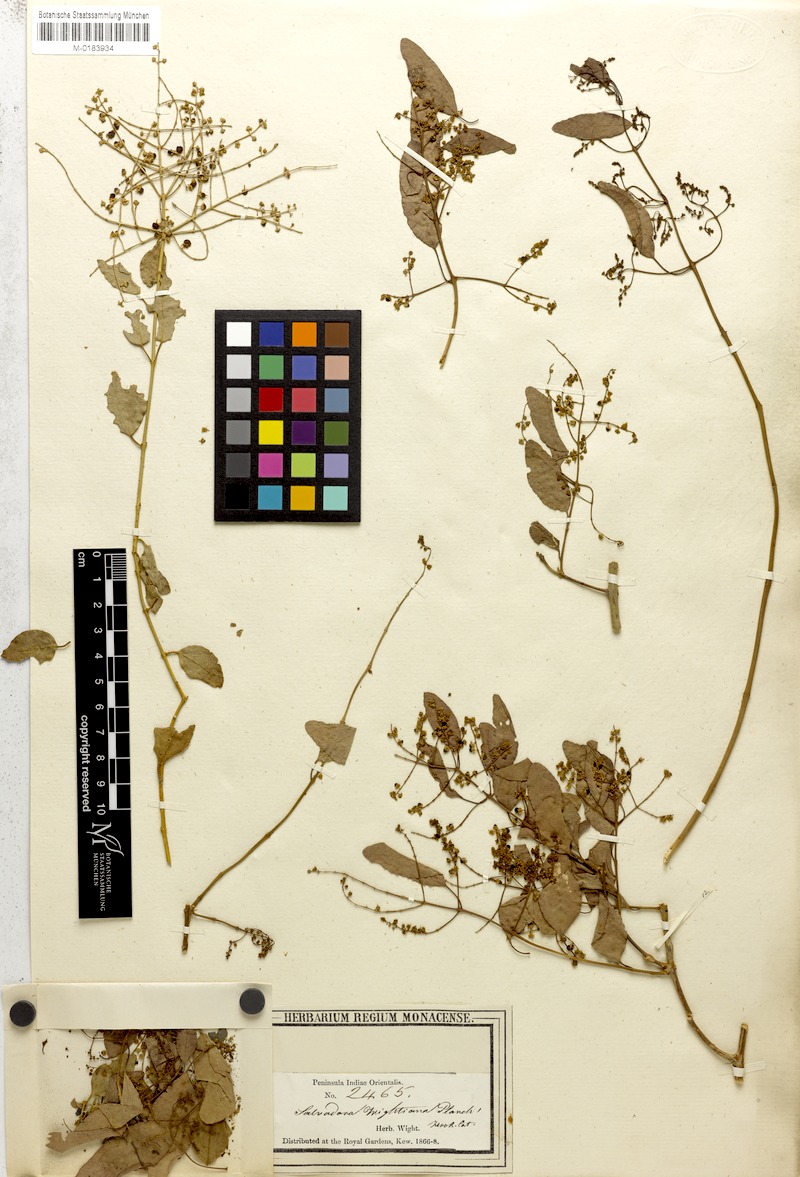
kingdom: Plantae
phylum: Tracheophyta
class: Magnoliopsida
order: Brassicales
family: Salvadoraceae
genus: Salvadora
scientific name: Salvadora persica
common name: Toothbrushtree
